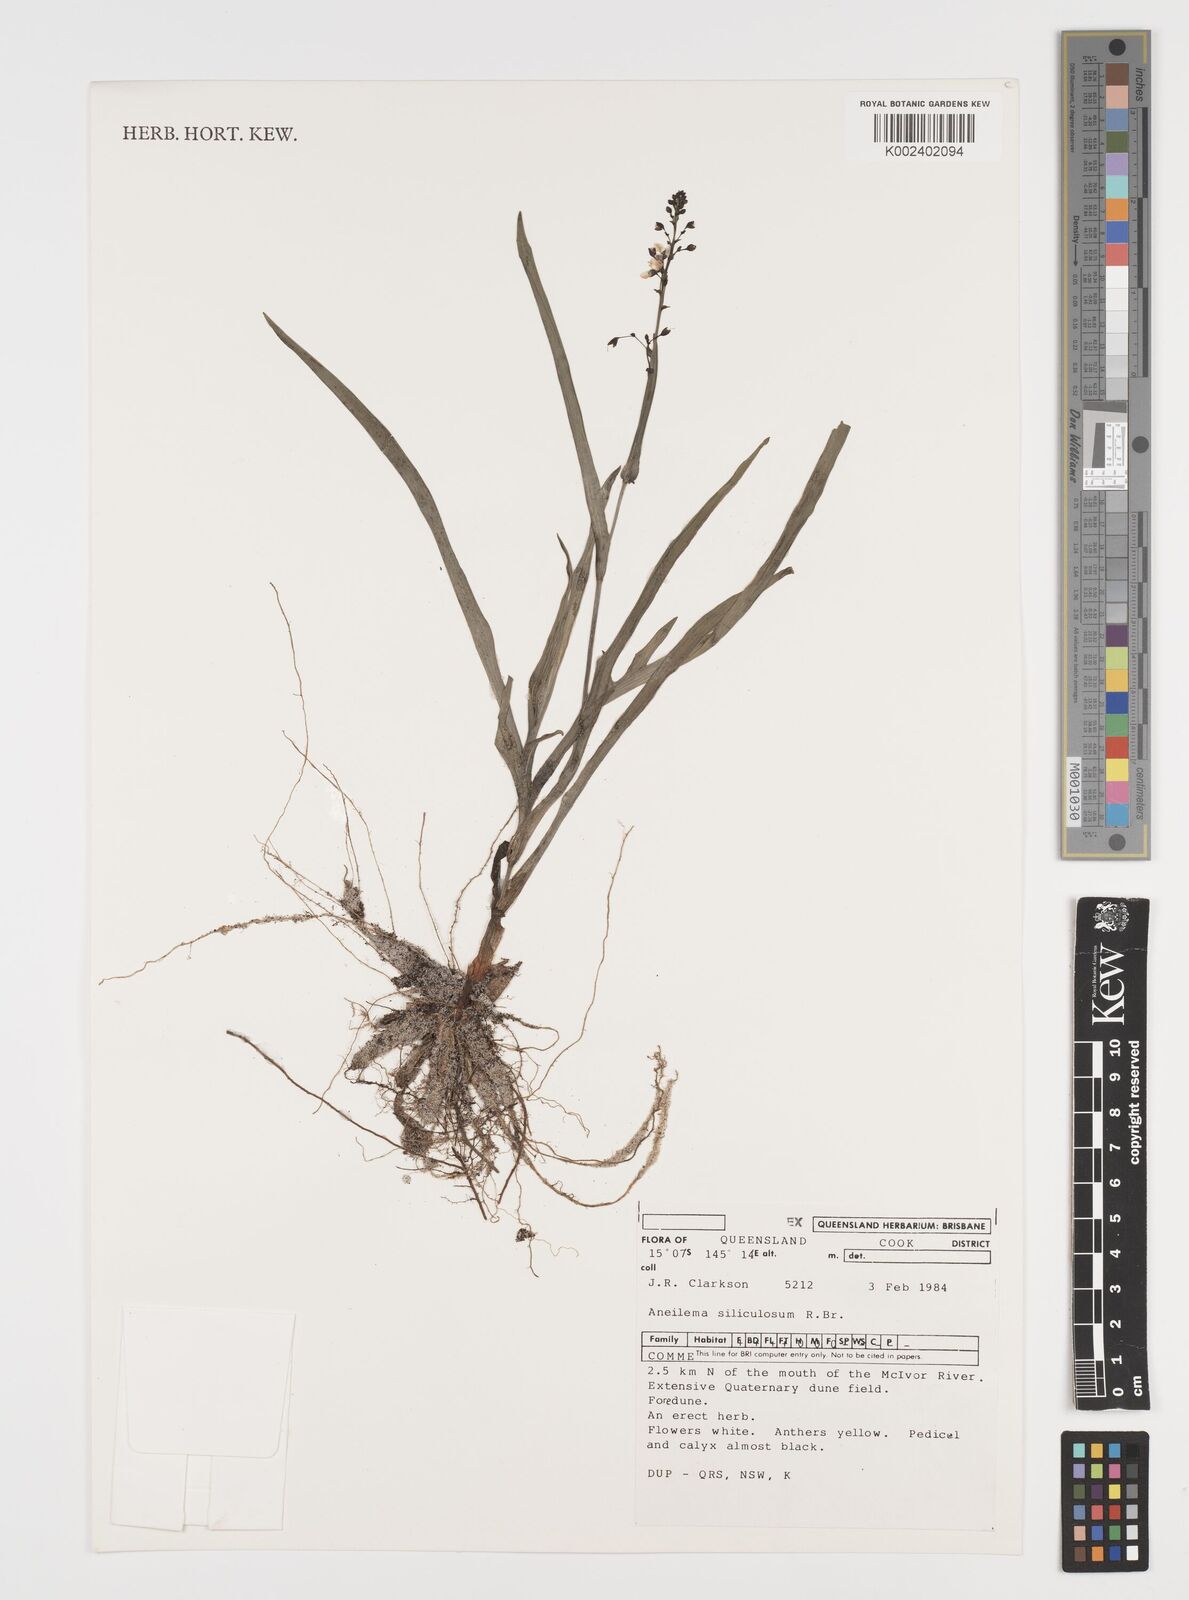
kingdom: Plantae
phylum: Tracheophyta
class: Liliopsida
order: Commelinales
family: Commelinaceae
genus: Aneilema
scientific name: Aneilema siliculosum
